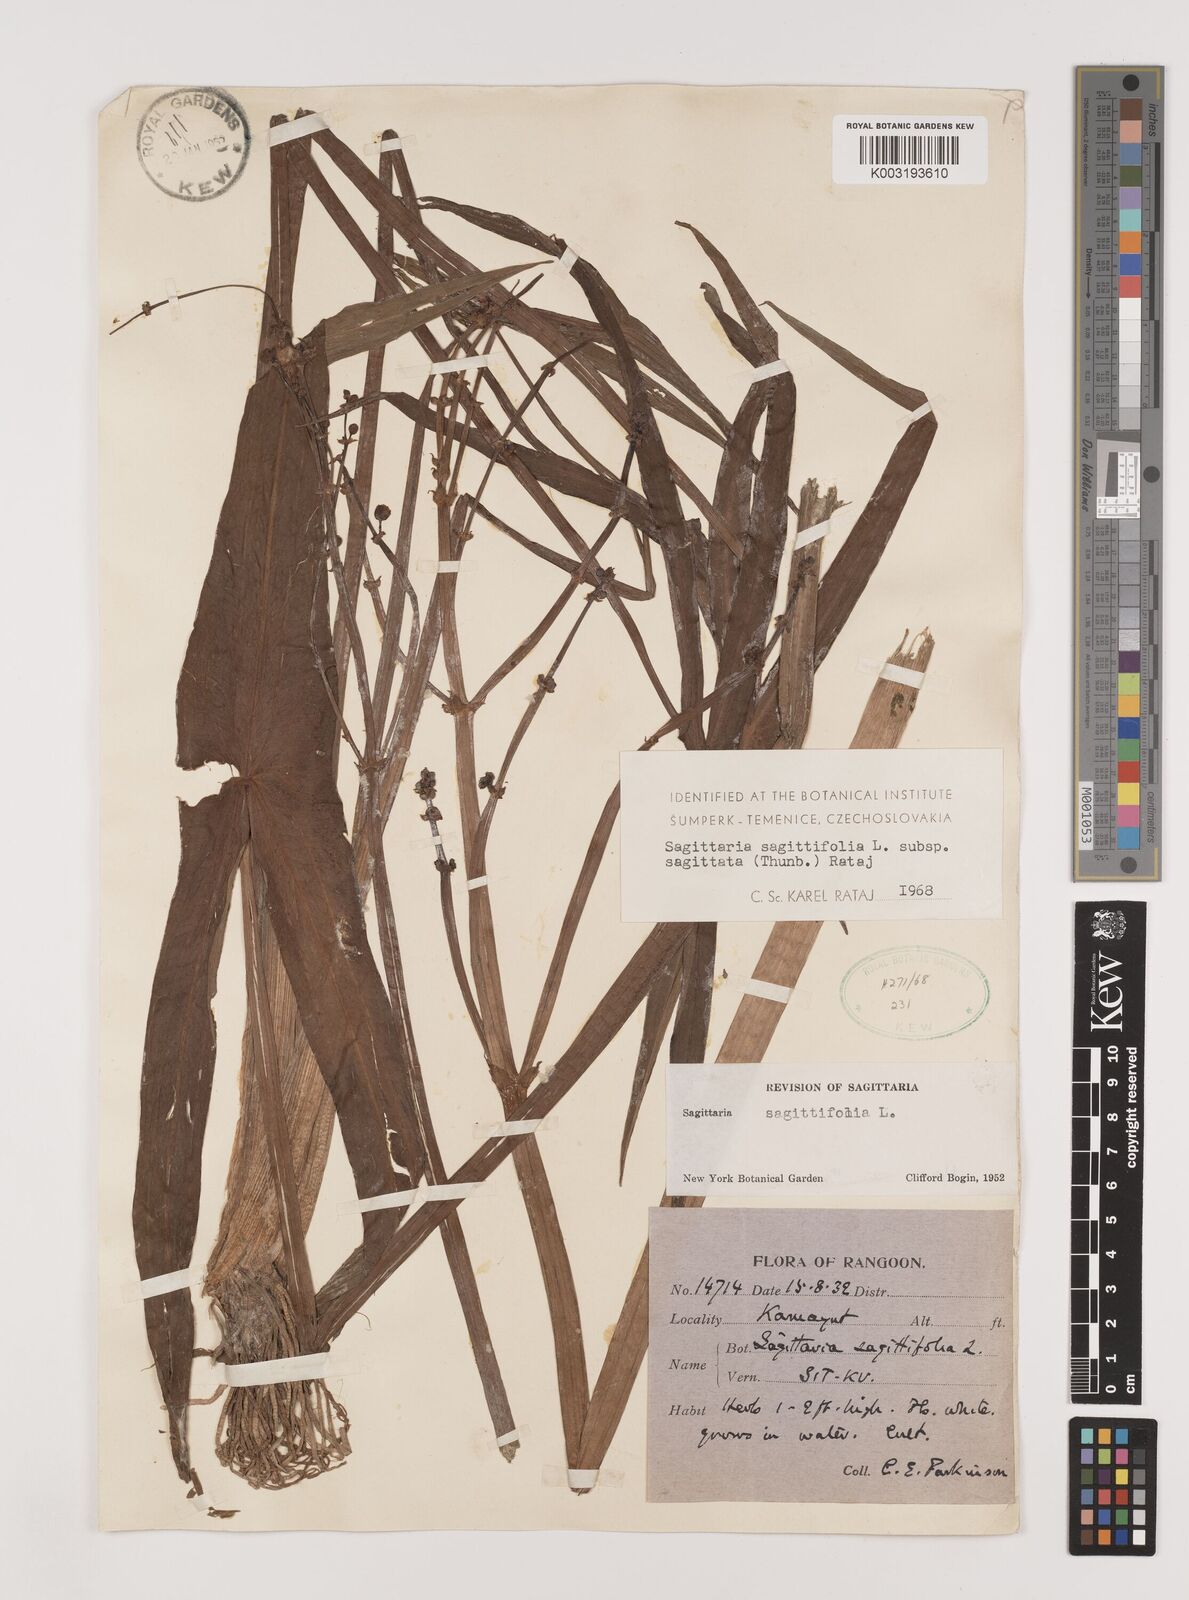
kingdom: Plantae
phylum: Tracheophyta
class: Liliopsida
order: Alismatales
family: Alismataceae
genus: Sagittaria
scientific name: Sagittaria sagittifolia
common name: Arrowhead
